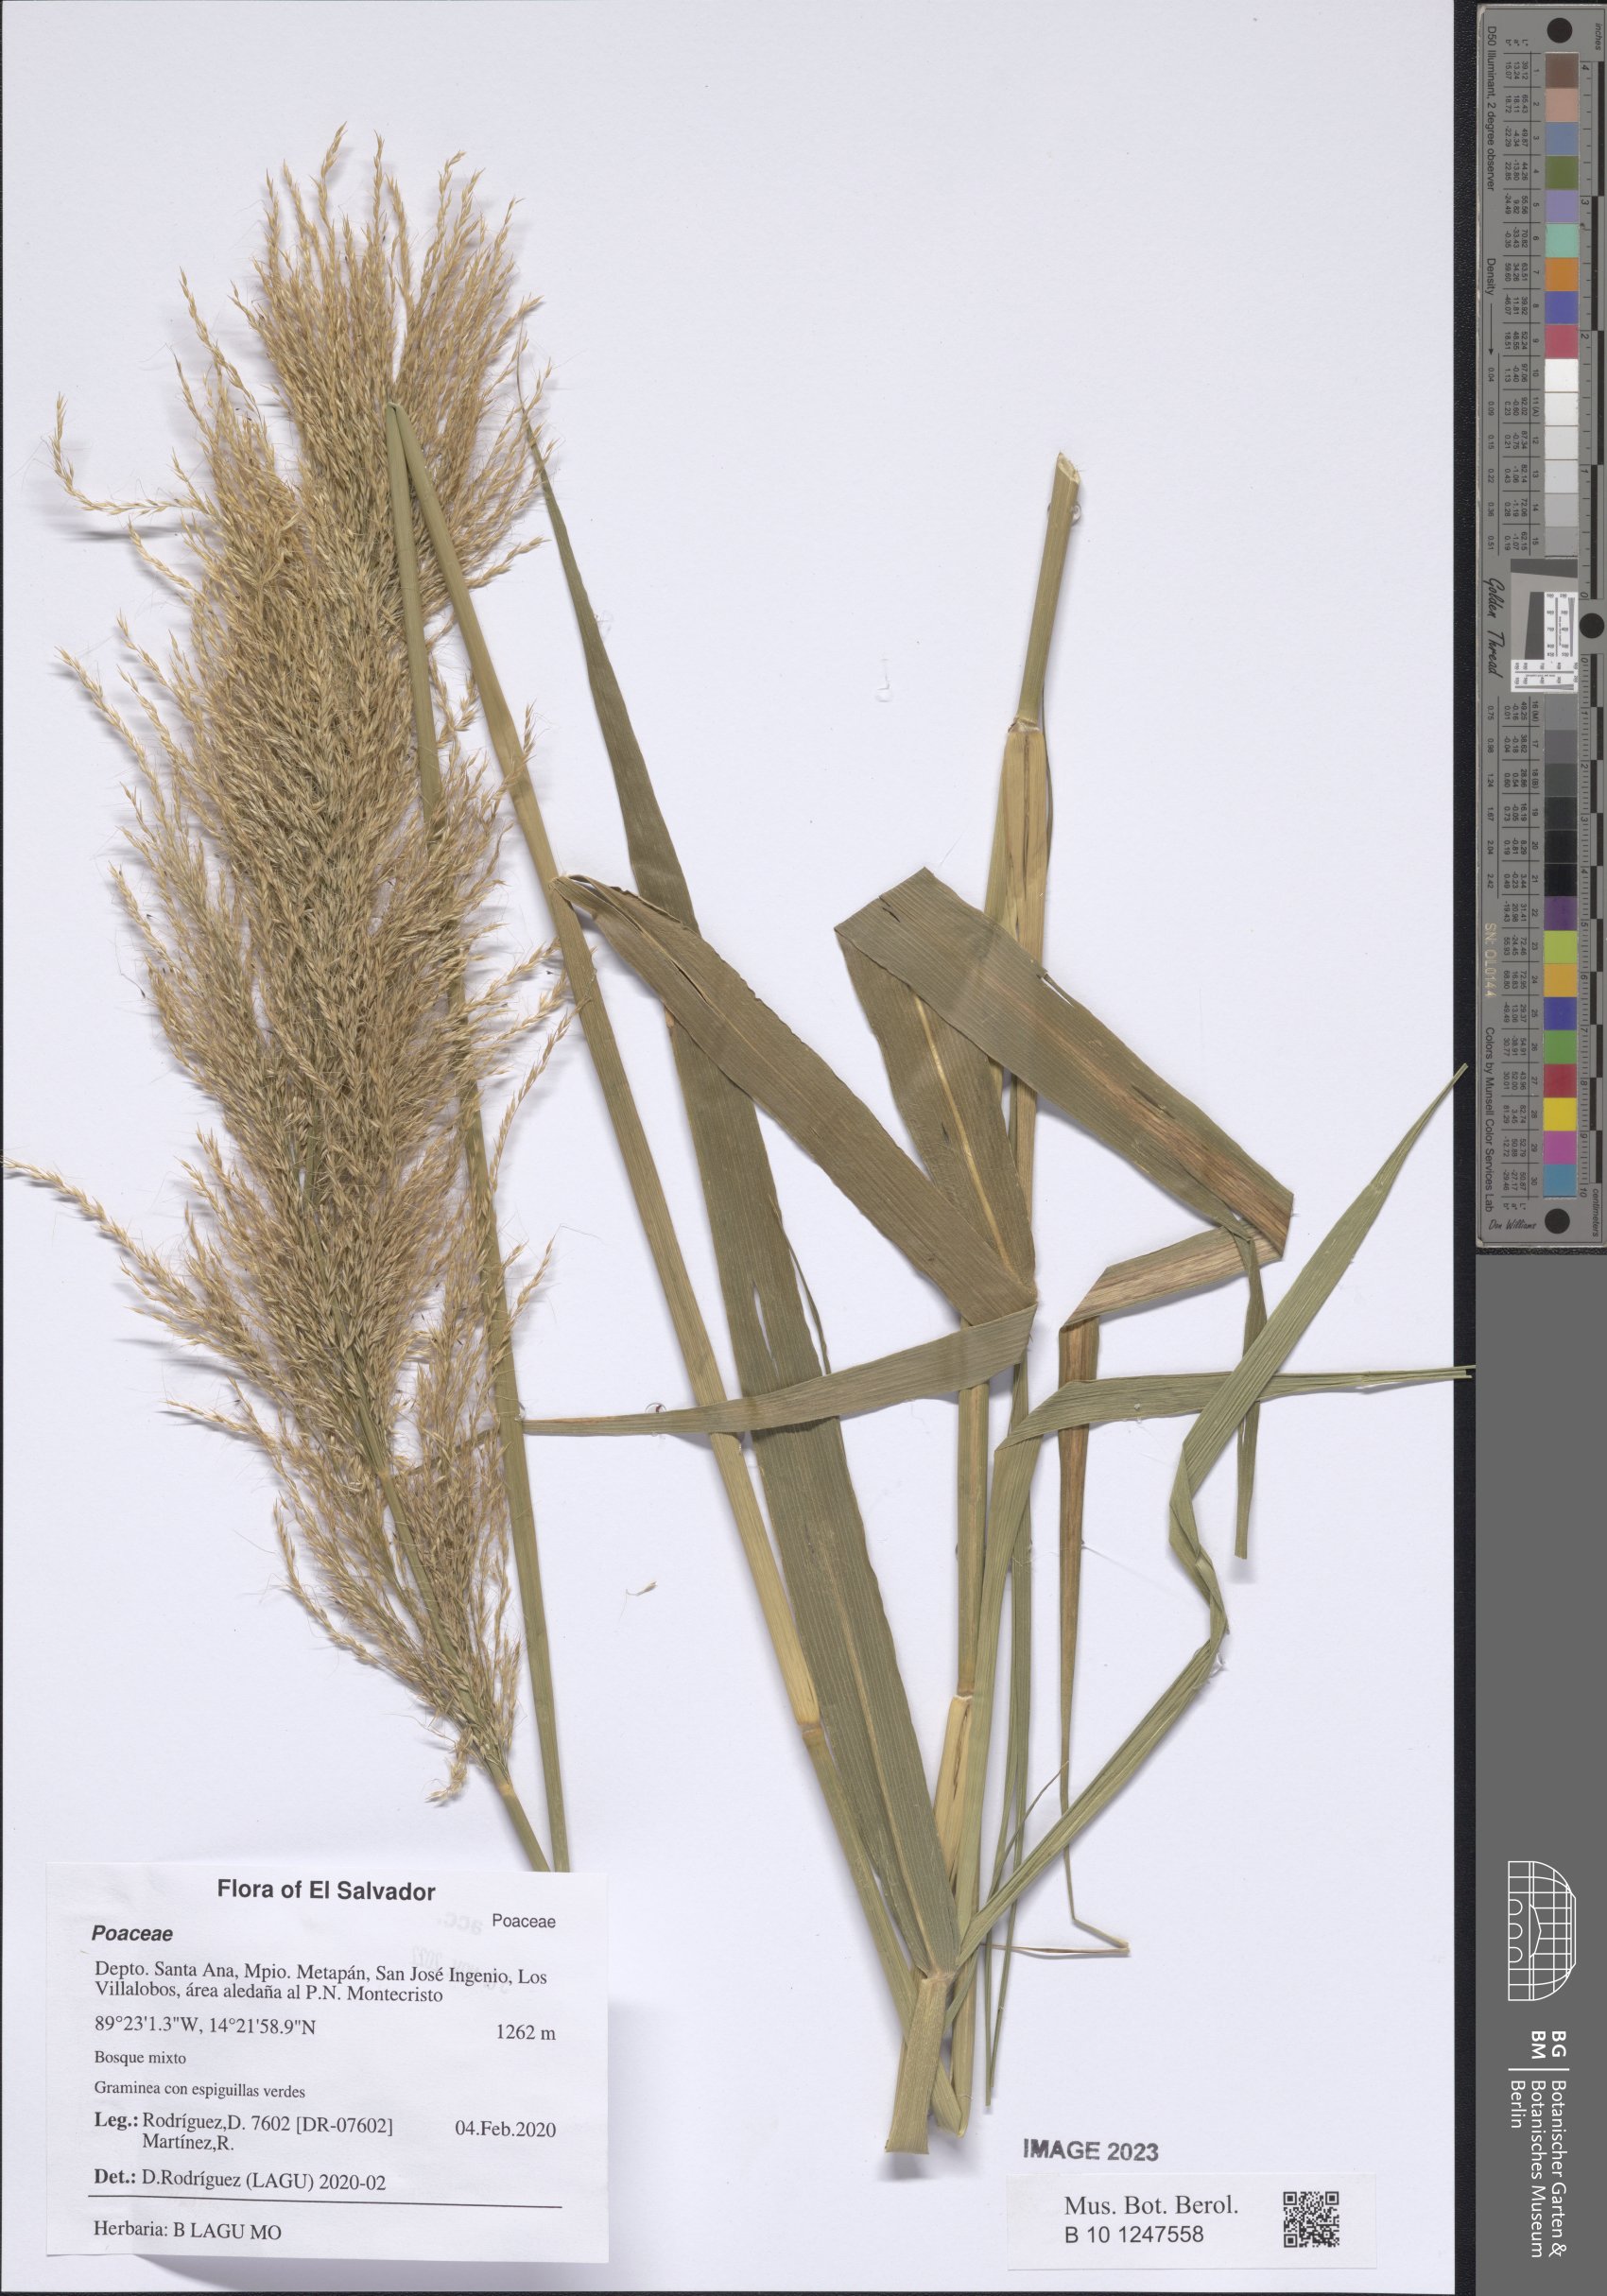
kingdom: Plantae
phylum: Tracheophyta
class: Liliopsida
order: Poales
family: Poaceae
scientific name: Poaceae
